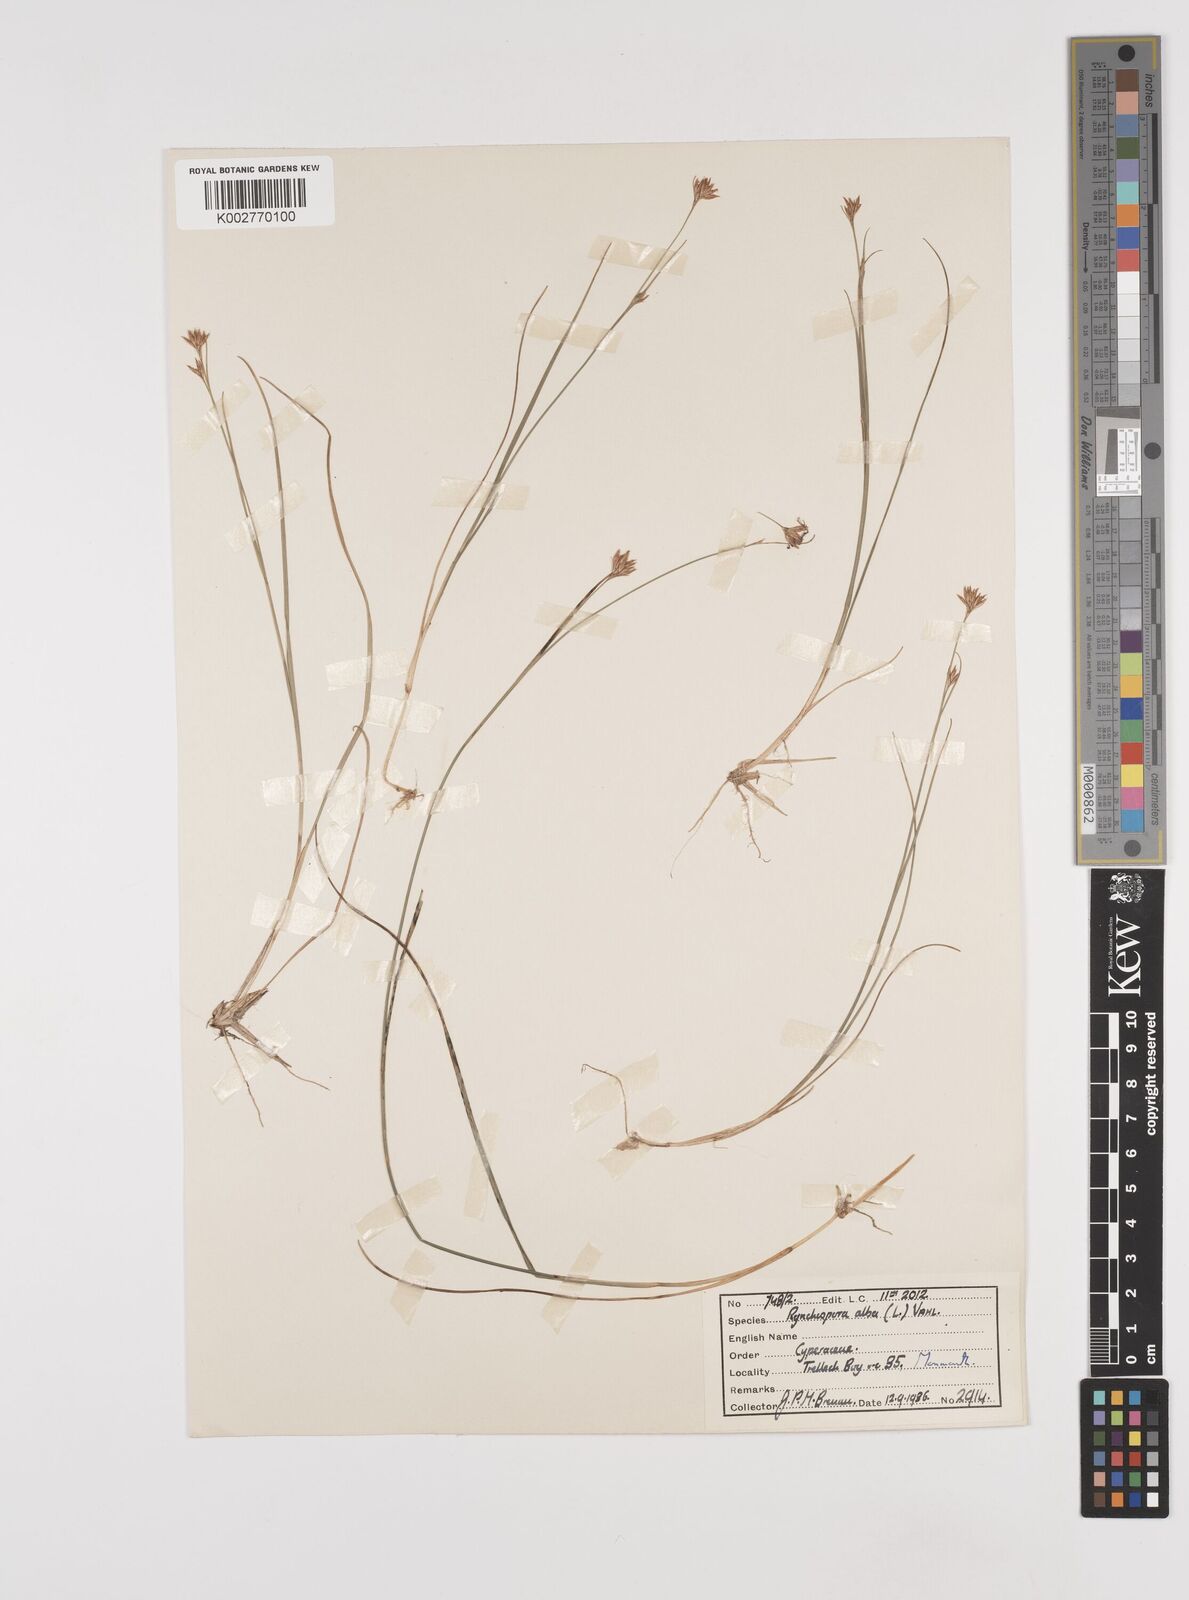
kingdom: Plantae
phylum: Tracheophyta
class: Liliopsida
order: Poales
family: Cyperaceae
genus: Rhynchospora
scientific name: Rhynchospora alba
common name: White beak-sedge
